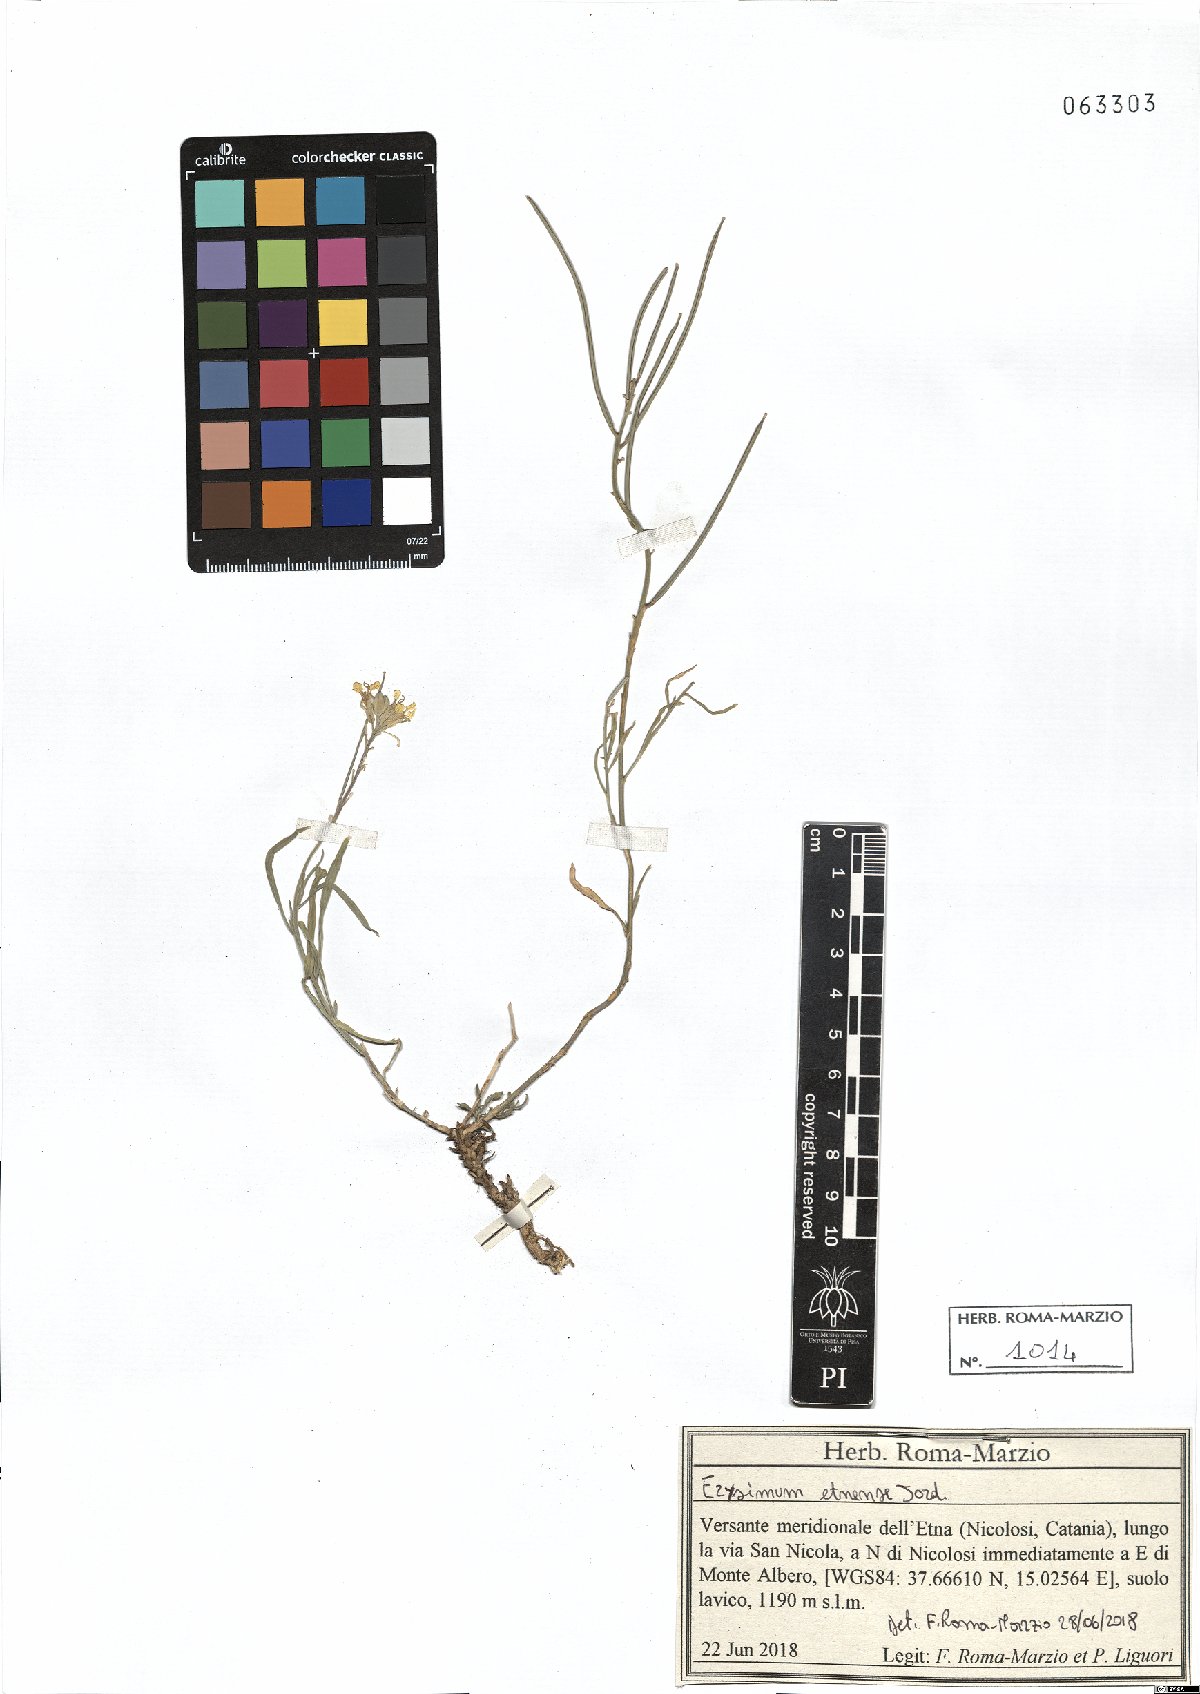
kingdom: Plantae
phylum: Tracheophyta
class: Magnoliopsida
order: Brassicales
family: Brassicaceae
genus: Erysimum
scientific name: Erysimum bonannianum
